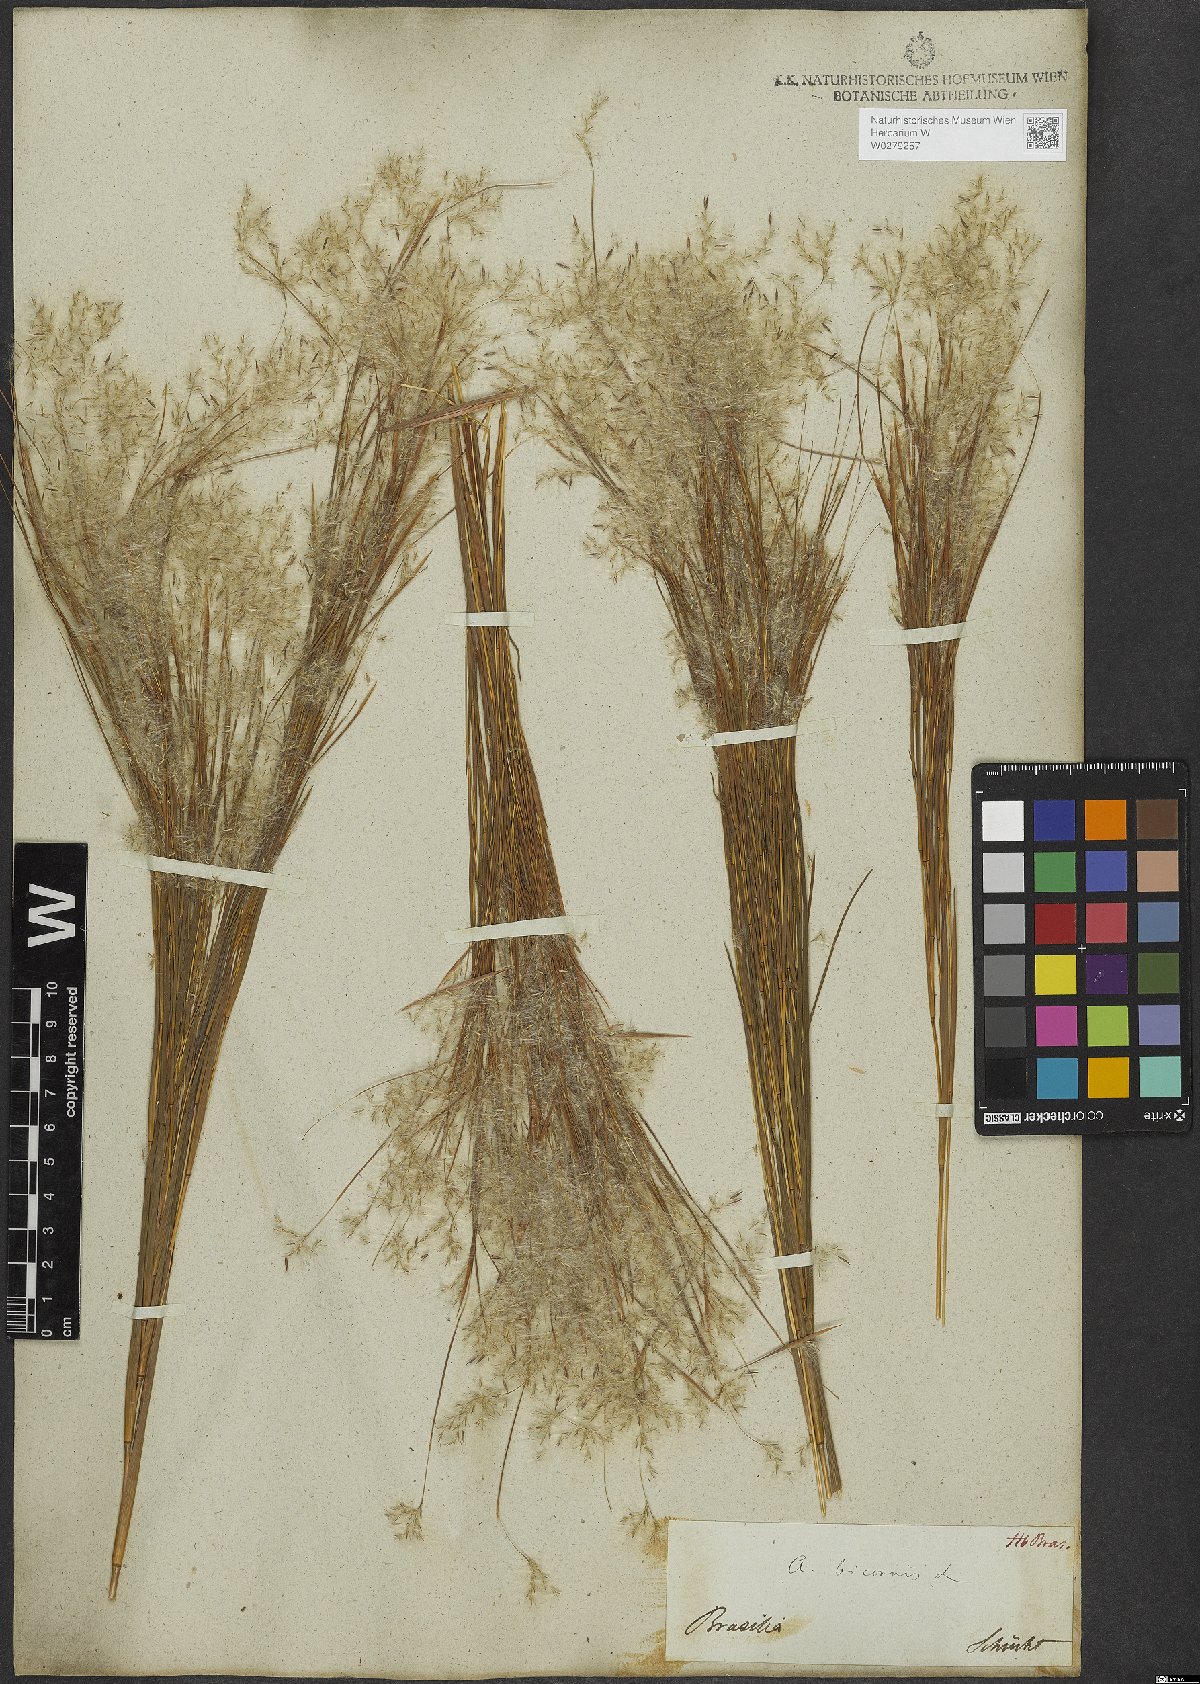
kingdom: Plantae
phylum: Tracheophyta
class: Liliopsida
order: Poales
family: Poaceae
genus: Andropogon
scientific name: Andropogon bicornis
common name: West indian foxtail grass
